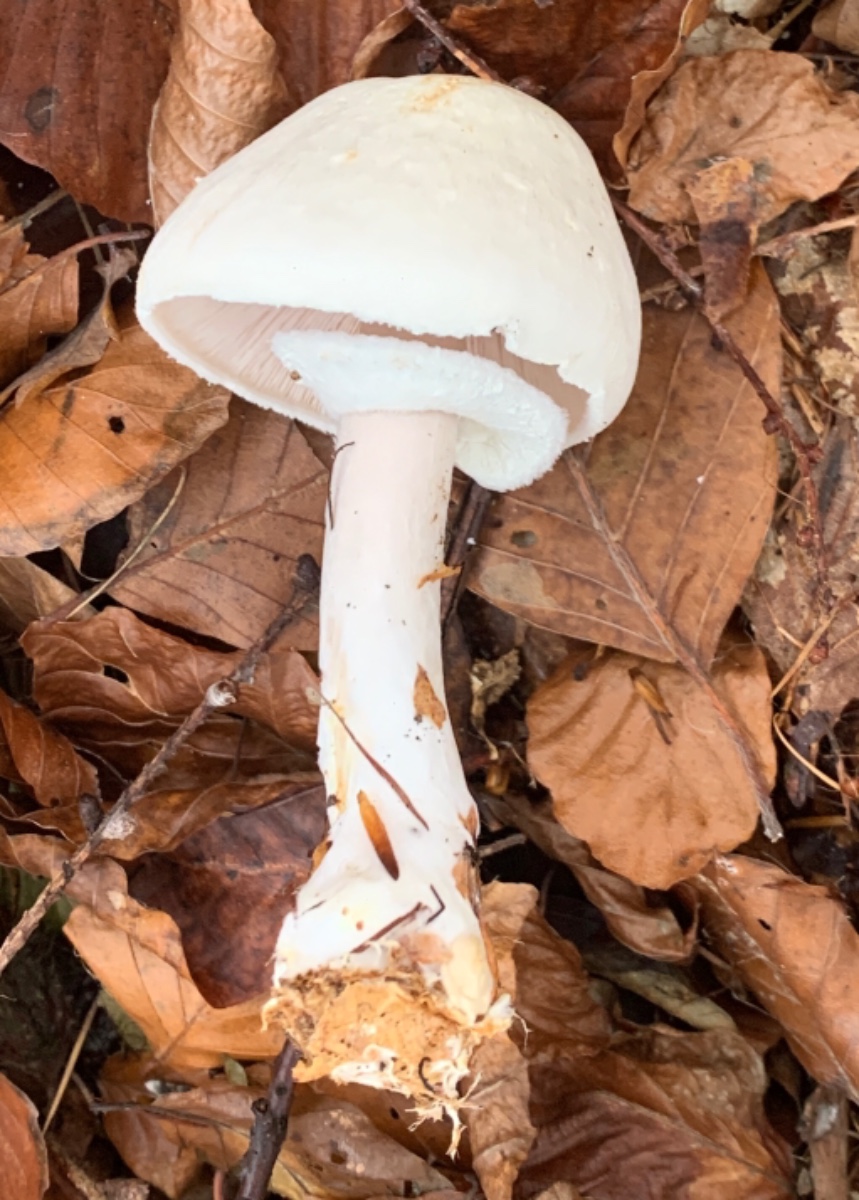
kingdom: Fungi
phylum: Basidiomycota
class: Agaricomycetes
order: Agaricales
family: Agaricaceae
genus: Agaricus
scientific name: Agaricus sylvicola
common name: skiveknoldet champignon
